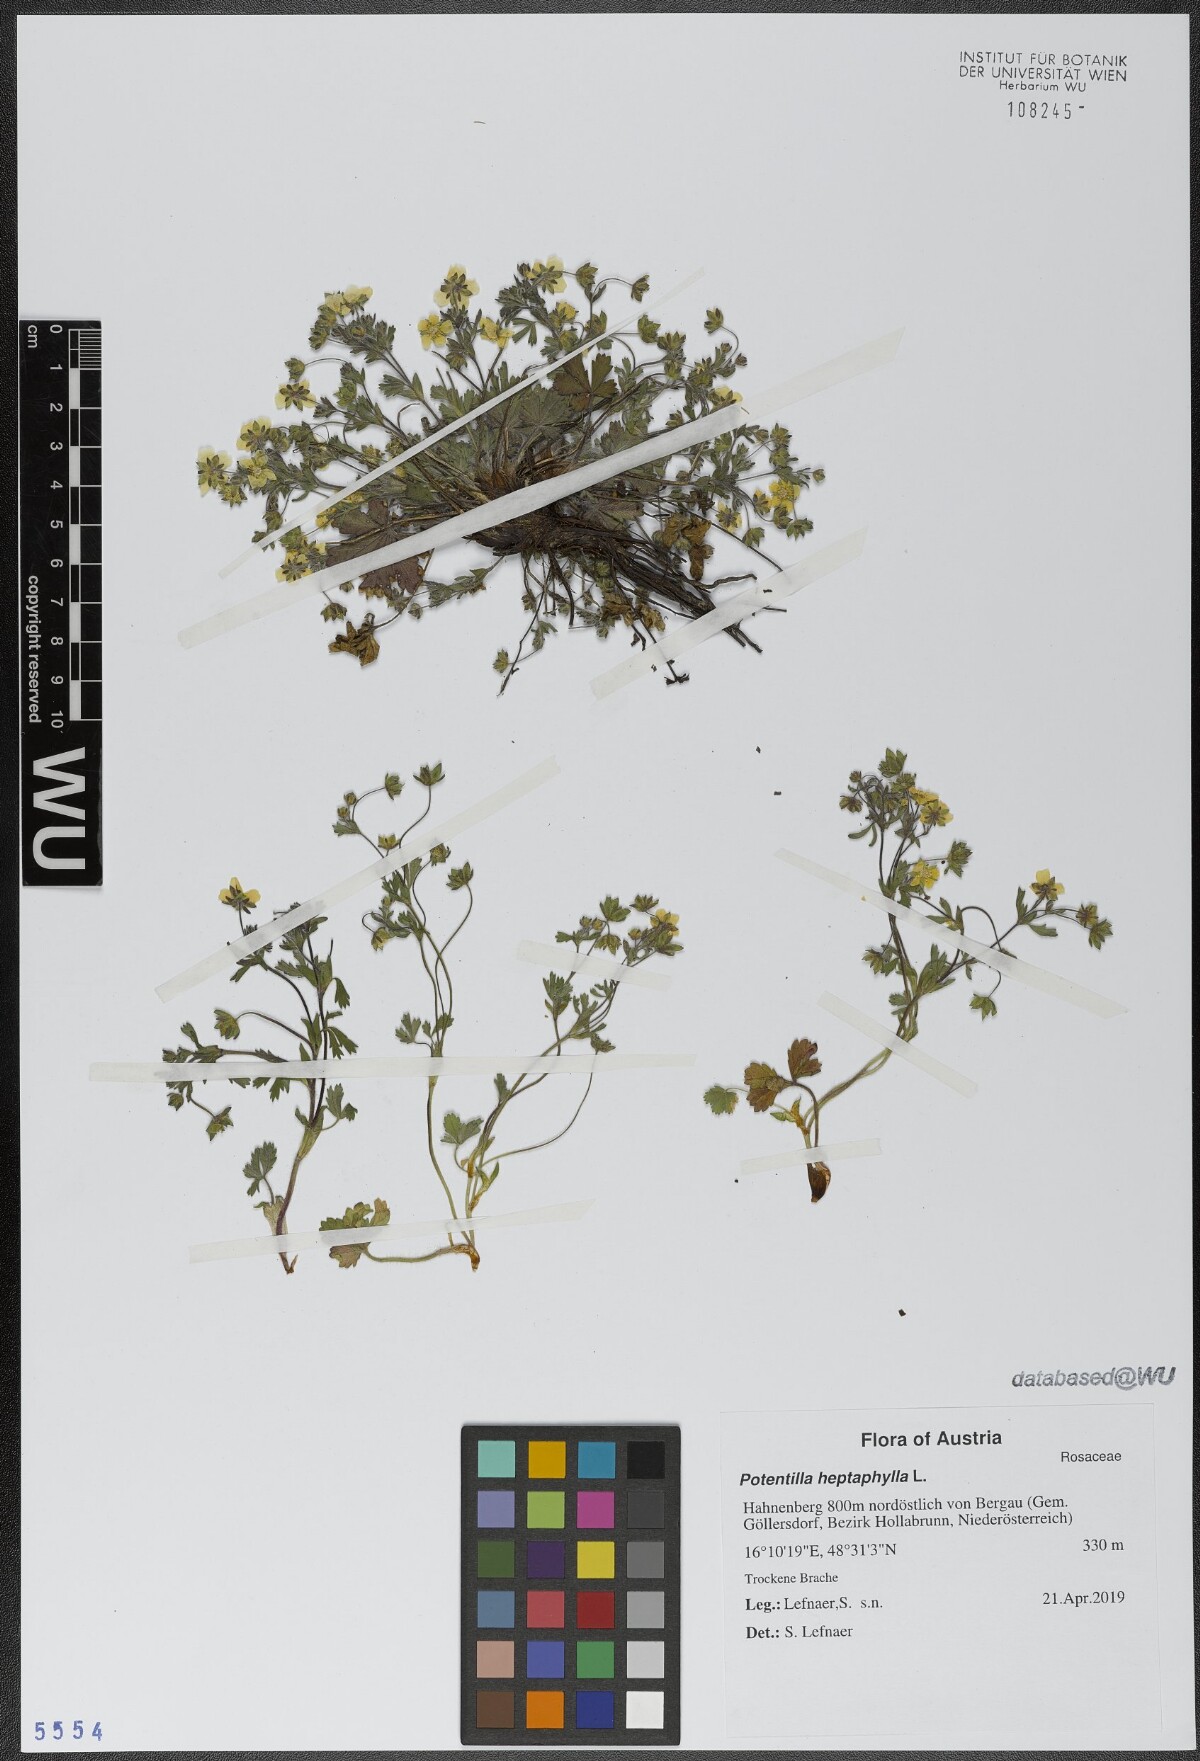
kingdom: Plantae
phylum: Tracheophyta
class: Magnoliopsida
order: Rosales
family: Rosaceae
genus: Potentilla
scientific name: Potentilla heptaphylla
